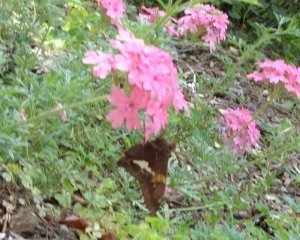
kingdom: Animalia
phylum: Arthropoda
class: Insecta
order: Lepidoptera
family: Hesperiidae
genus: Epargyreus
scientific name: Epargyreus clarus
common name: Silver-spotted Skipper
